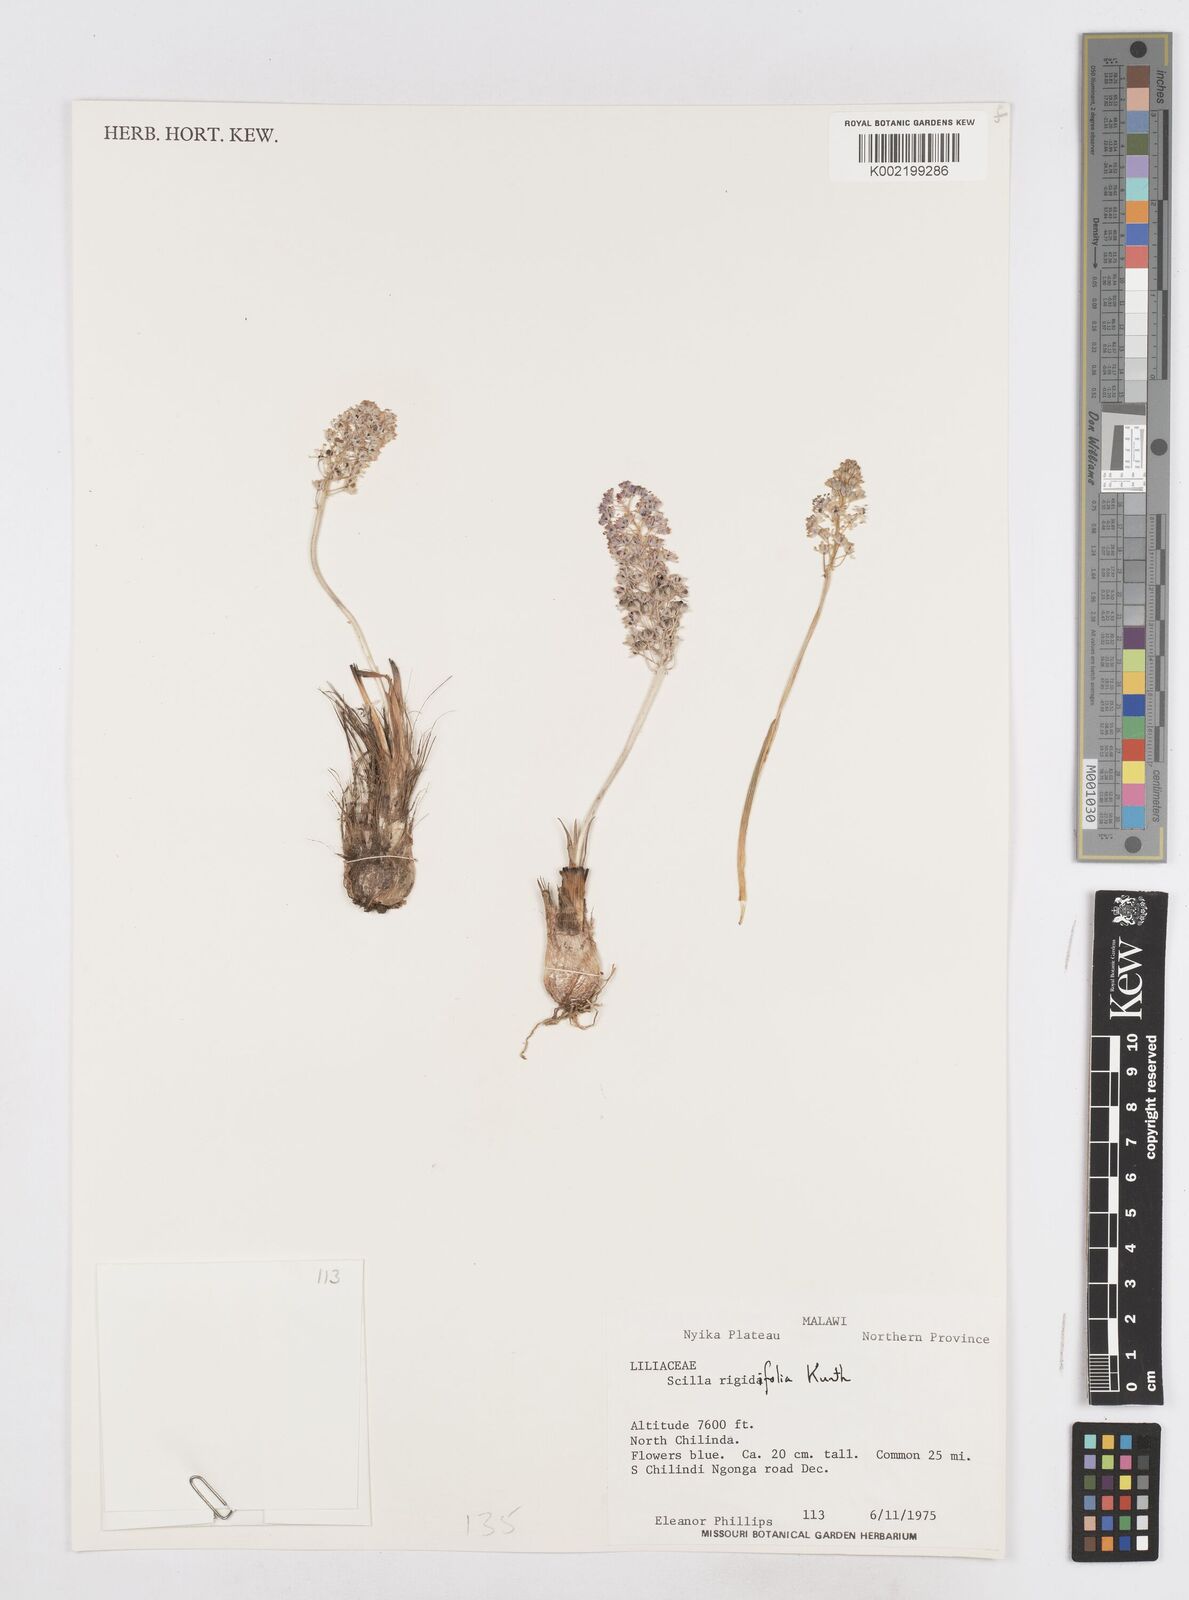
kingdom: Plantae
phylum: Tracheophyta
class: Liliopsida
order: Asparagales
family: Asparagaceae
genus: Schizocarphus
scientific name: Schizocarphus nervosus
